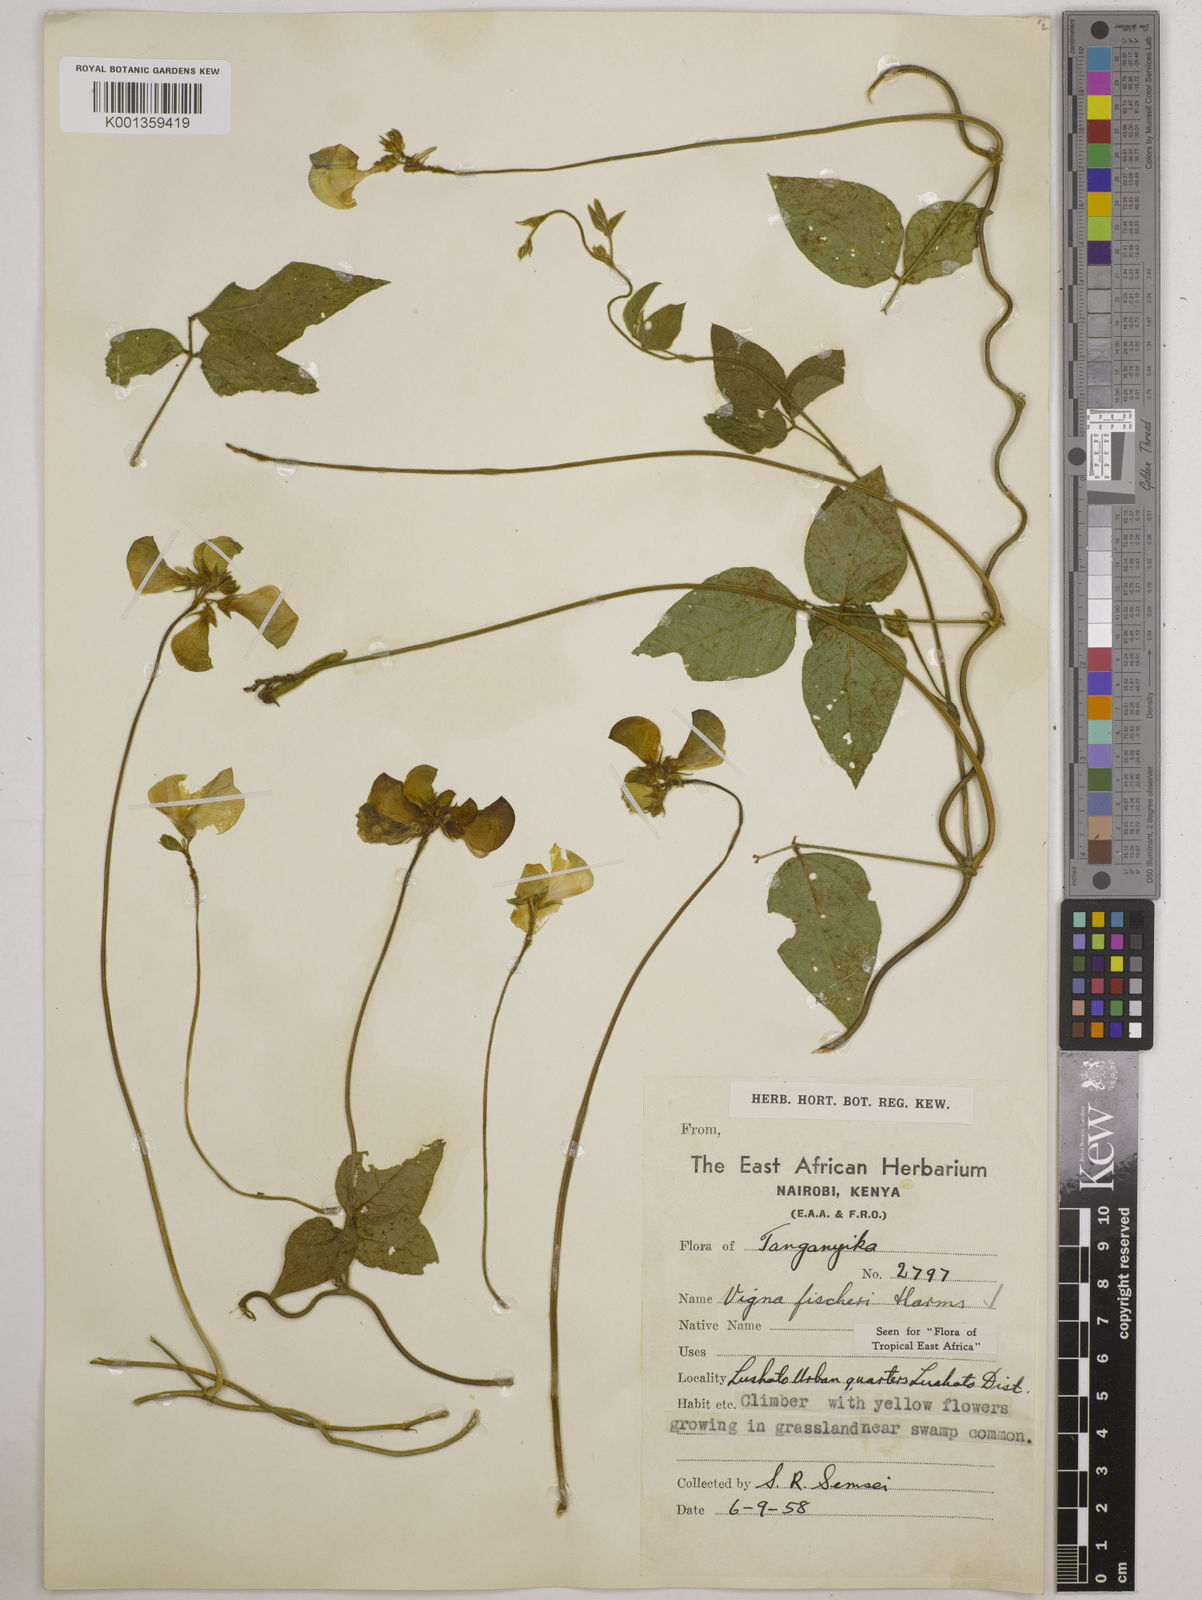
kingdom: Plantae
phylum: Tracheophyta
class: Magnoliopsida
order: Fabales
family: Fabaceae
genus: Vigna
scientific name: Vigna fischeri
